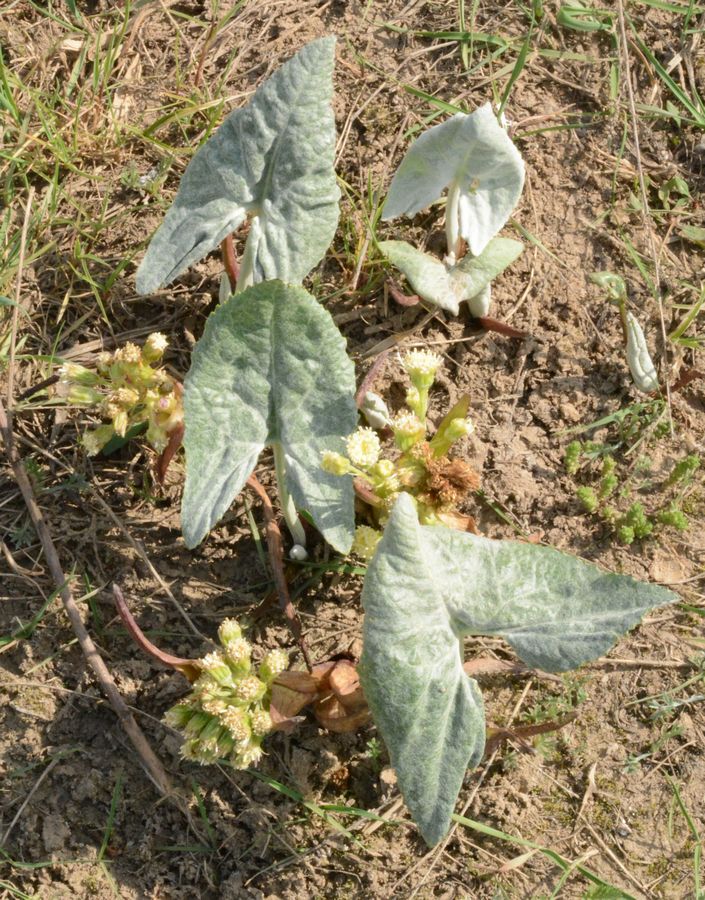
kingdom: Plantae
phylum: Tracheophyta
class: Magnoliopsida
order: Asterales
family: Asteraceae
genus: Petasites
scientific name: Petasites spurius
